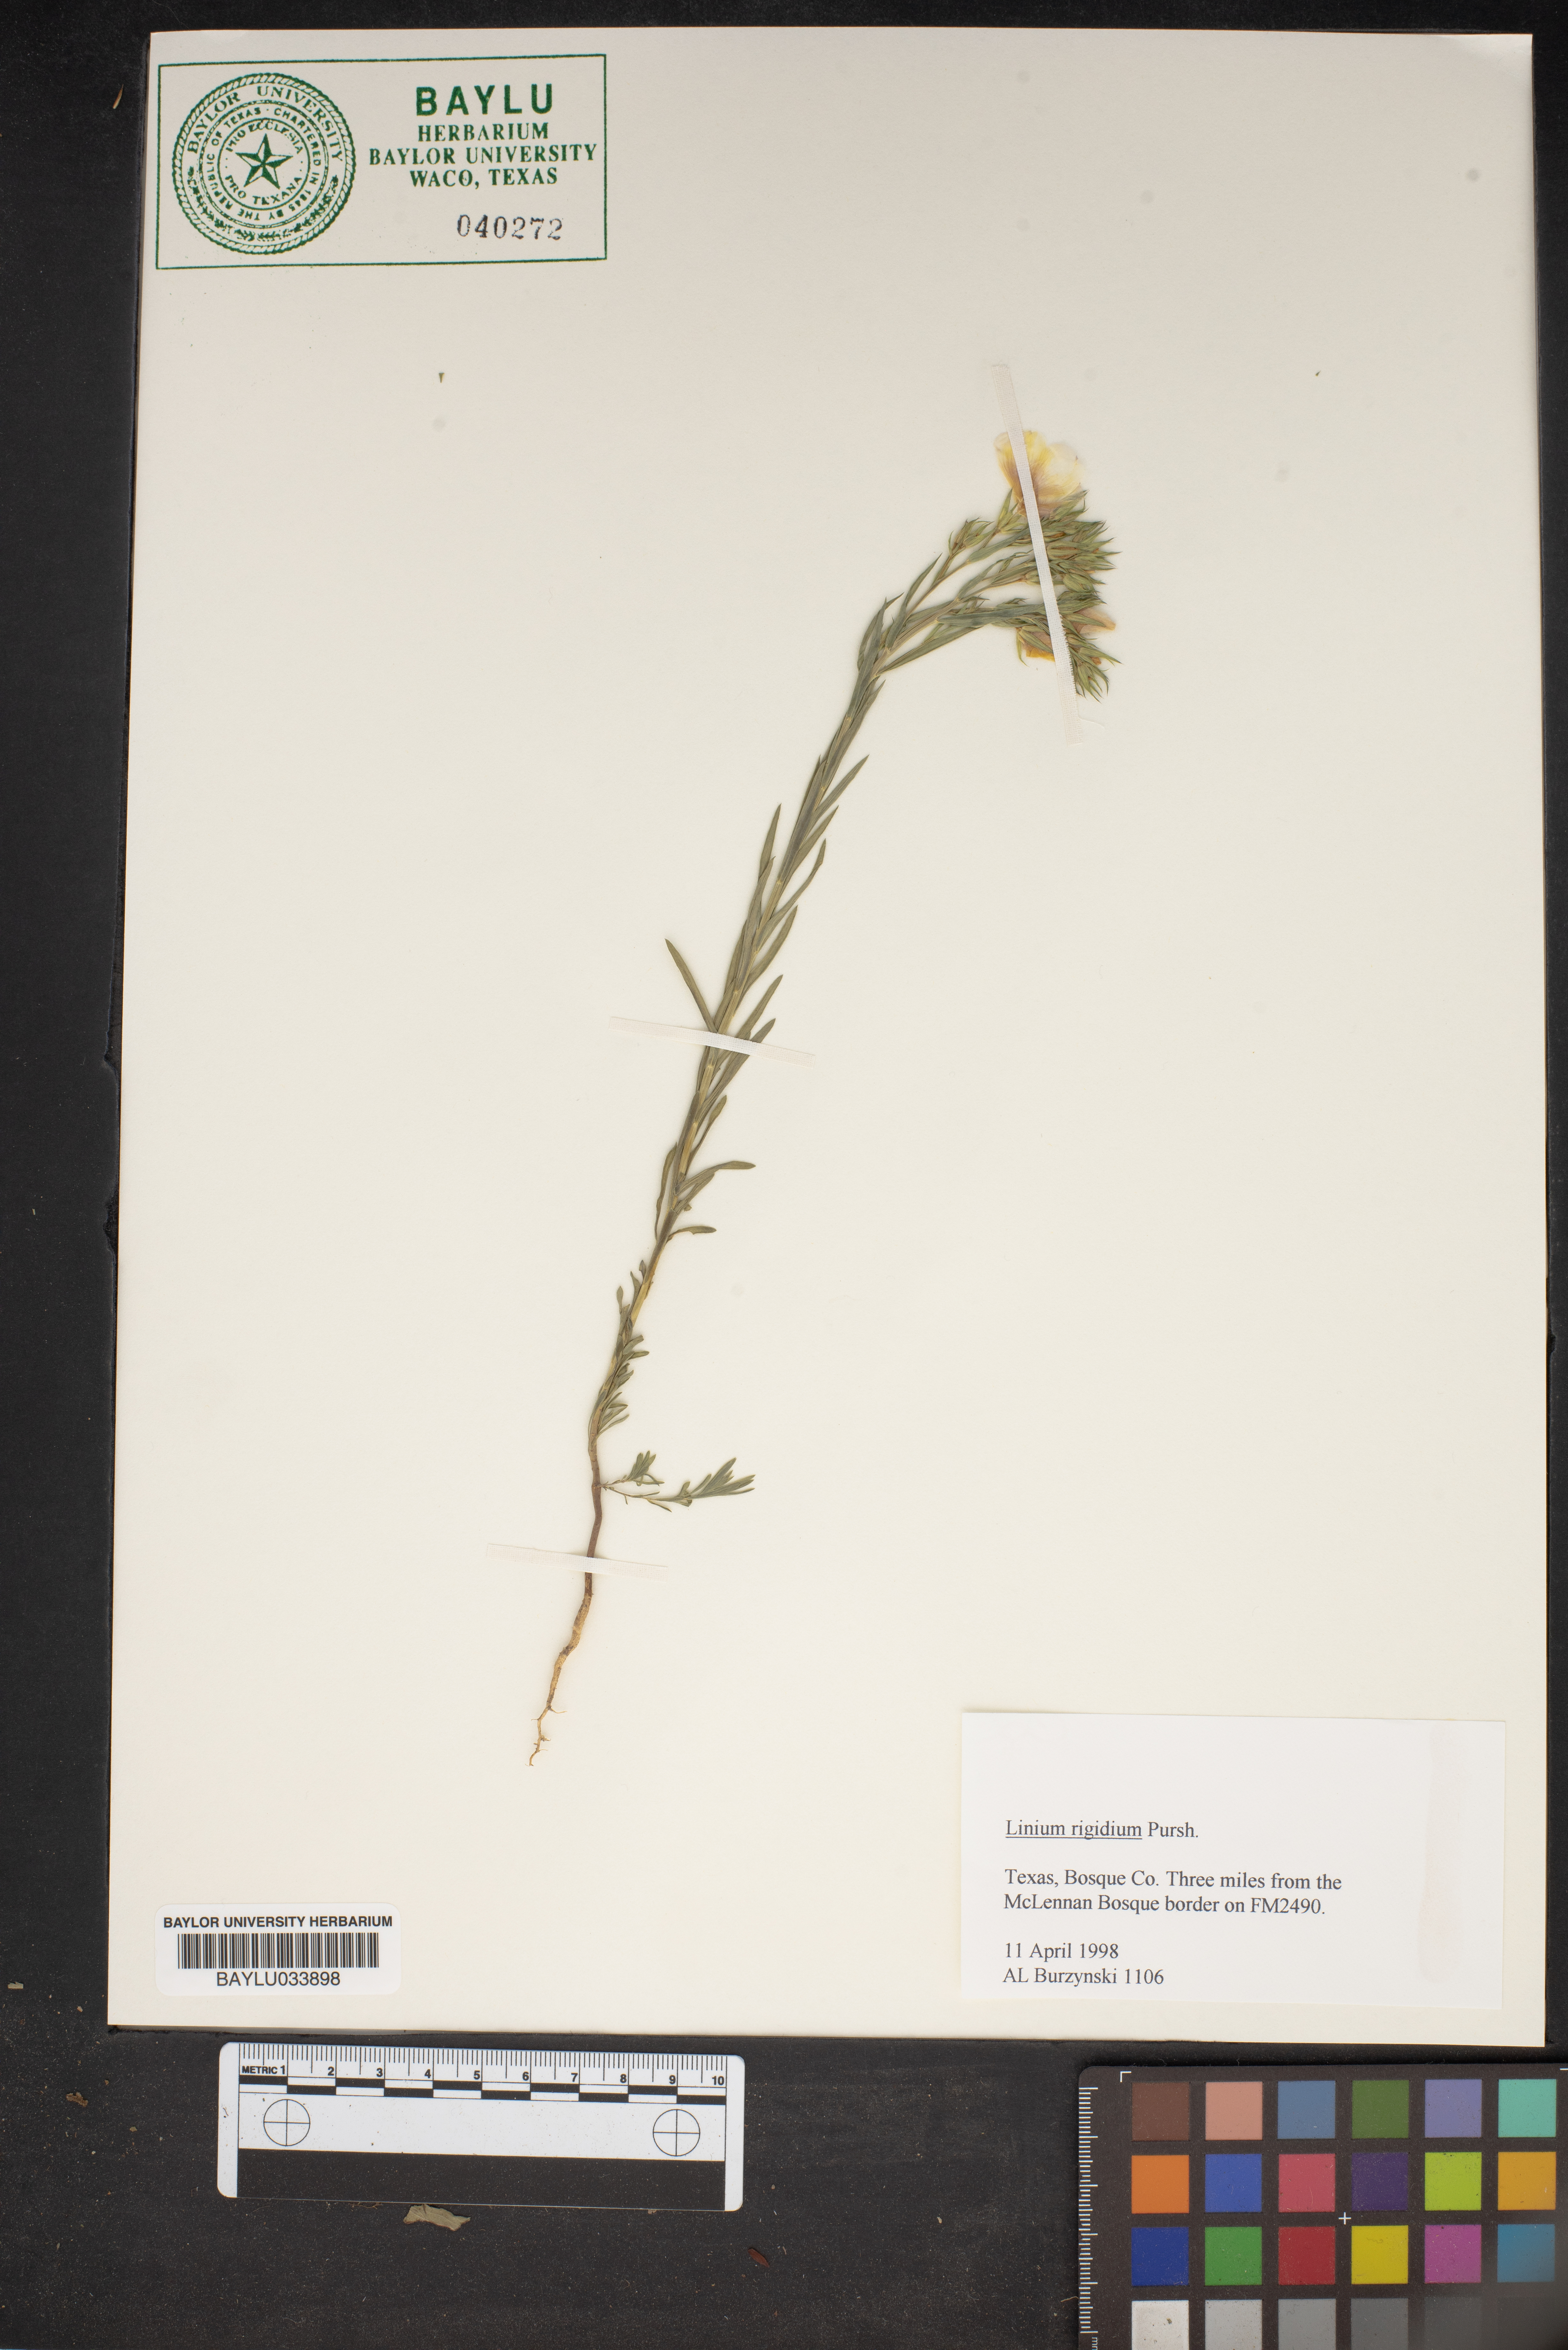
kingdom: Plantae
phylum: Tracheophyta
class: Magnoliopsida
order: Malpighiales
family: Linaceae
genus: Linum
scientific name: Linum rigidum
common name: Stiff-stem flax
